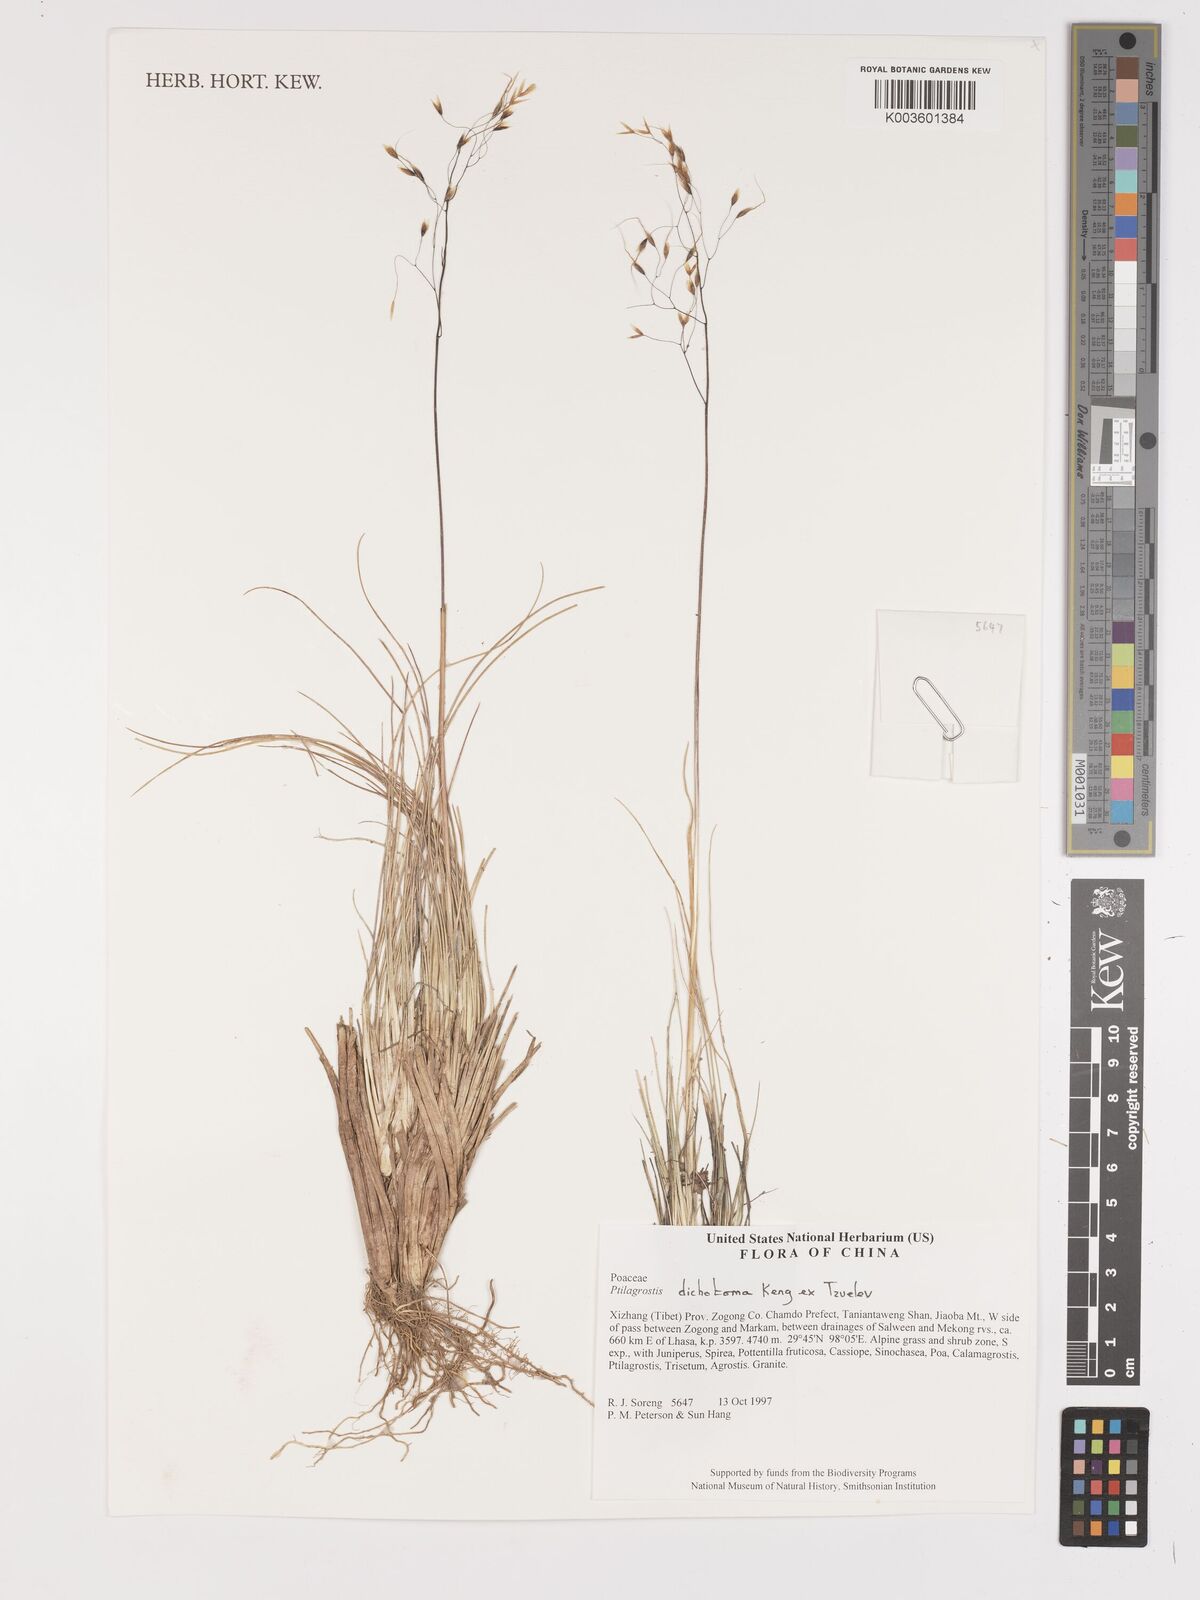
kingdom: Plantae
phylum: Tracheophyta
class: Liliopsida
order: Poales
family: Poaceae
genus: Stipa
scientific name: Stipa
